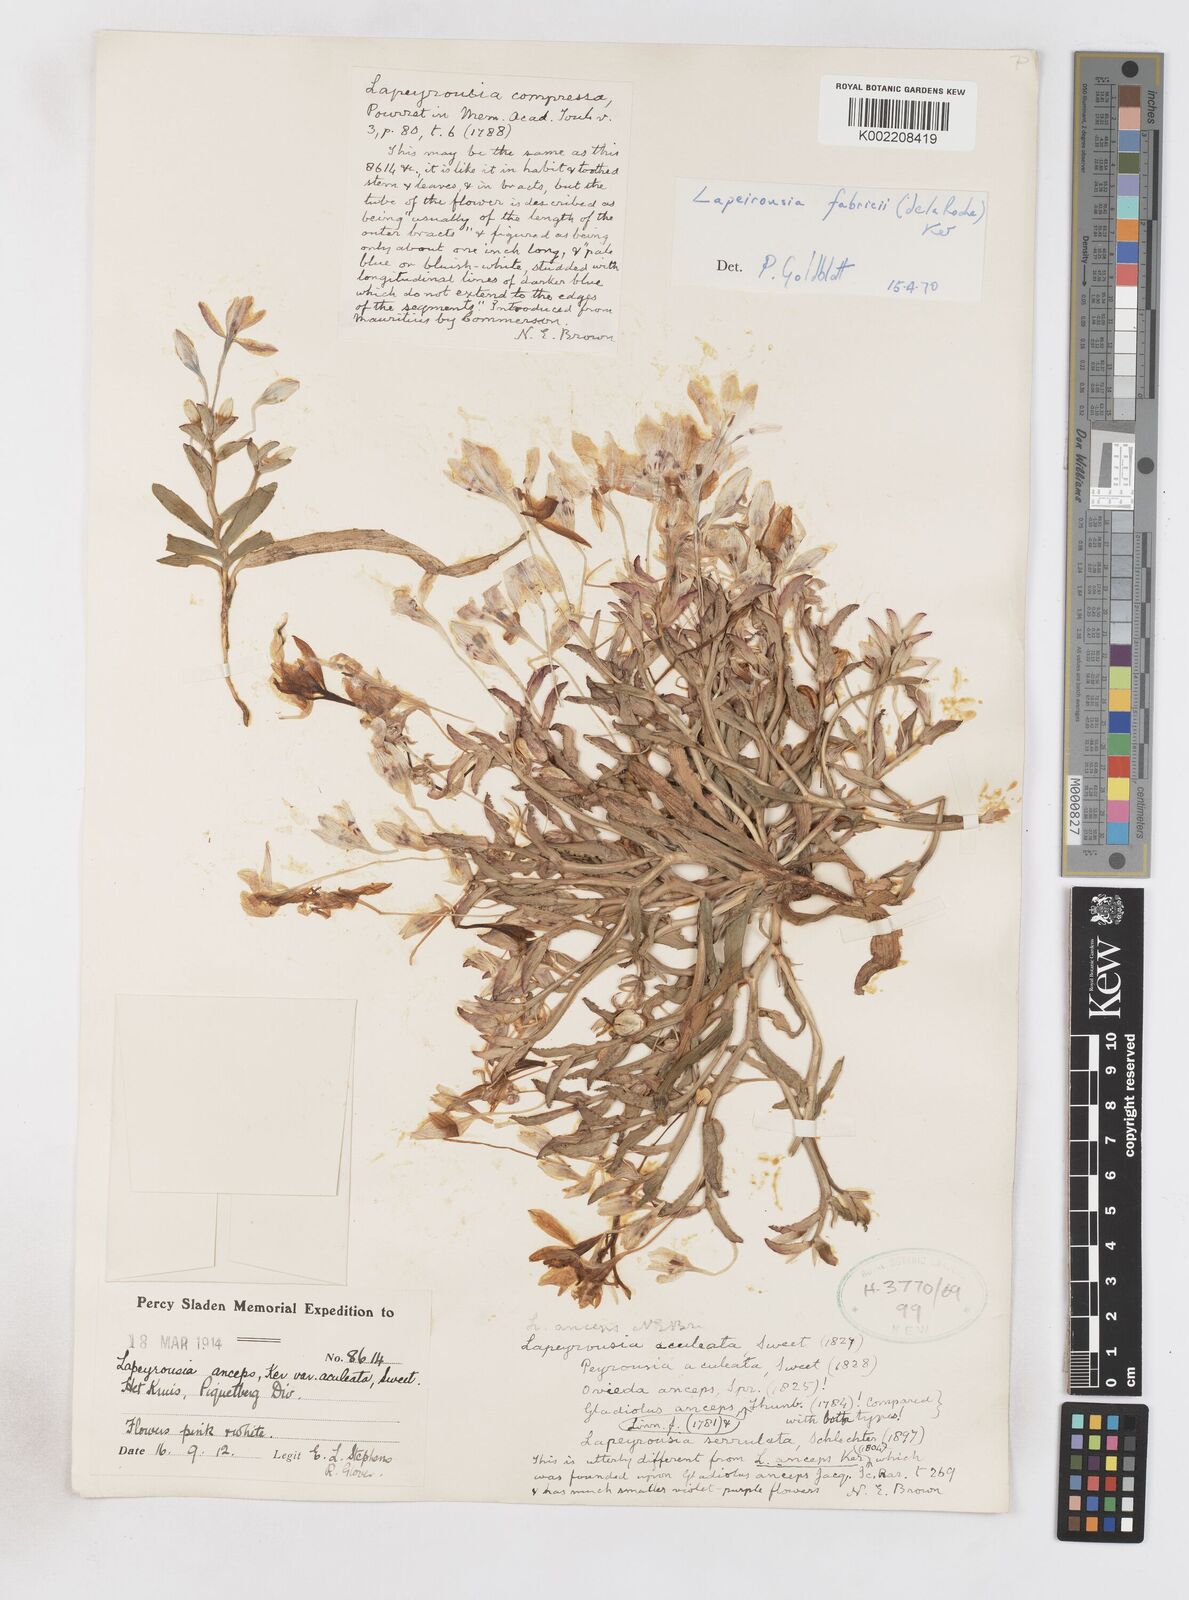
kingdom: Plantae
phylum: Tracheophyta
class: Liliopsida
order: Asparagales
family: Iridaceae
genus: Lapeirousia
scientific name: Lapeirousia fabricii
